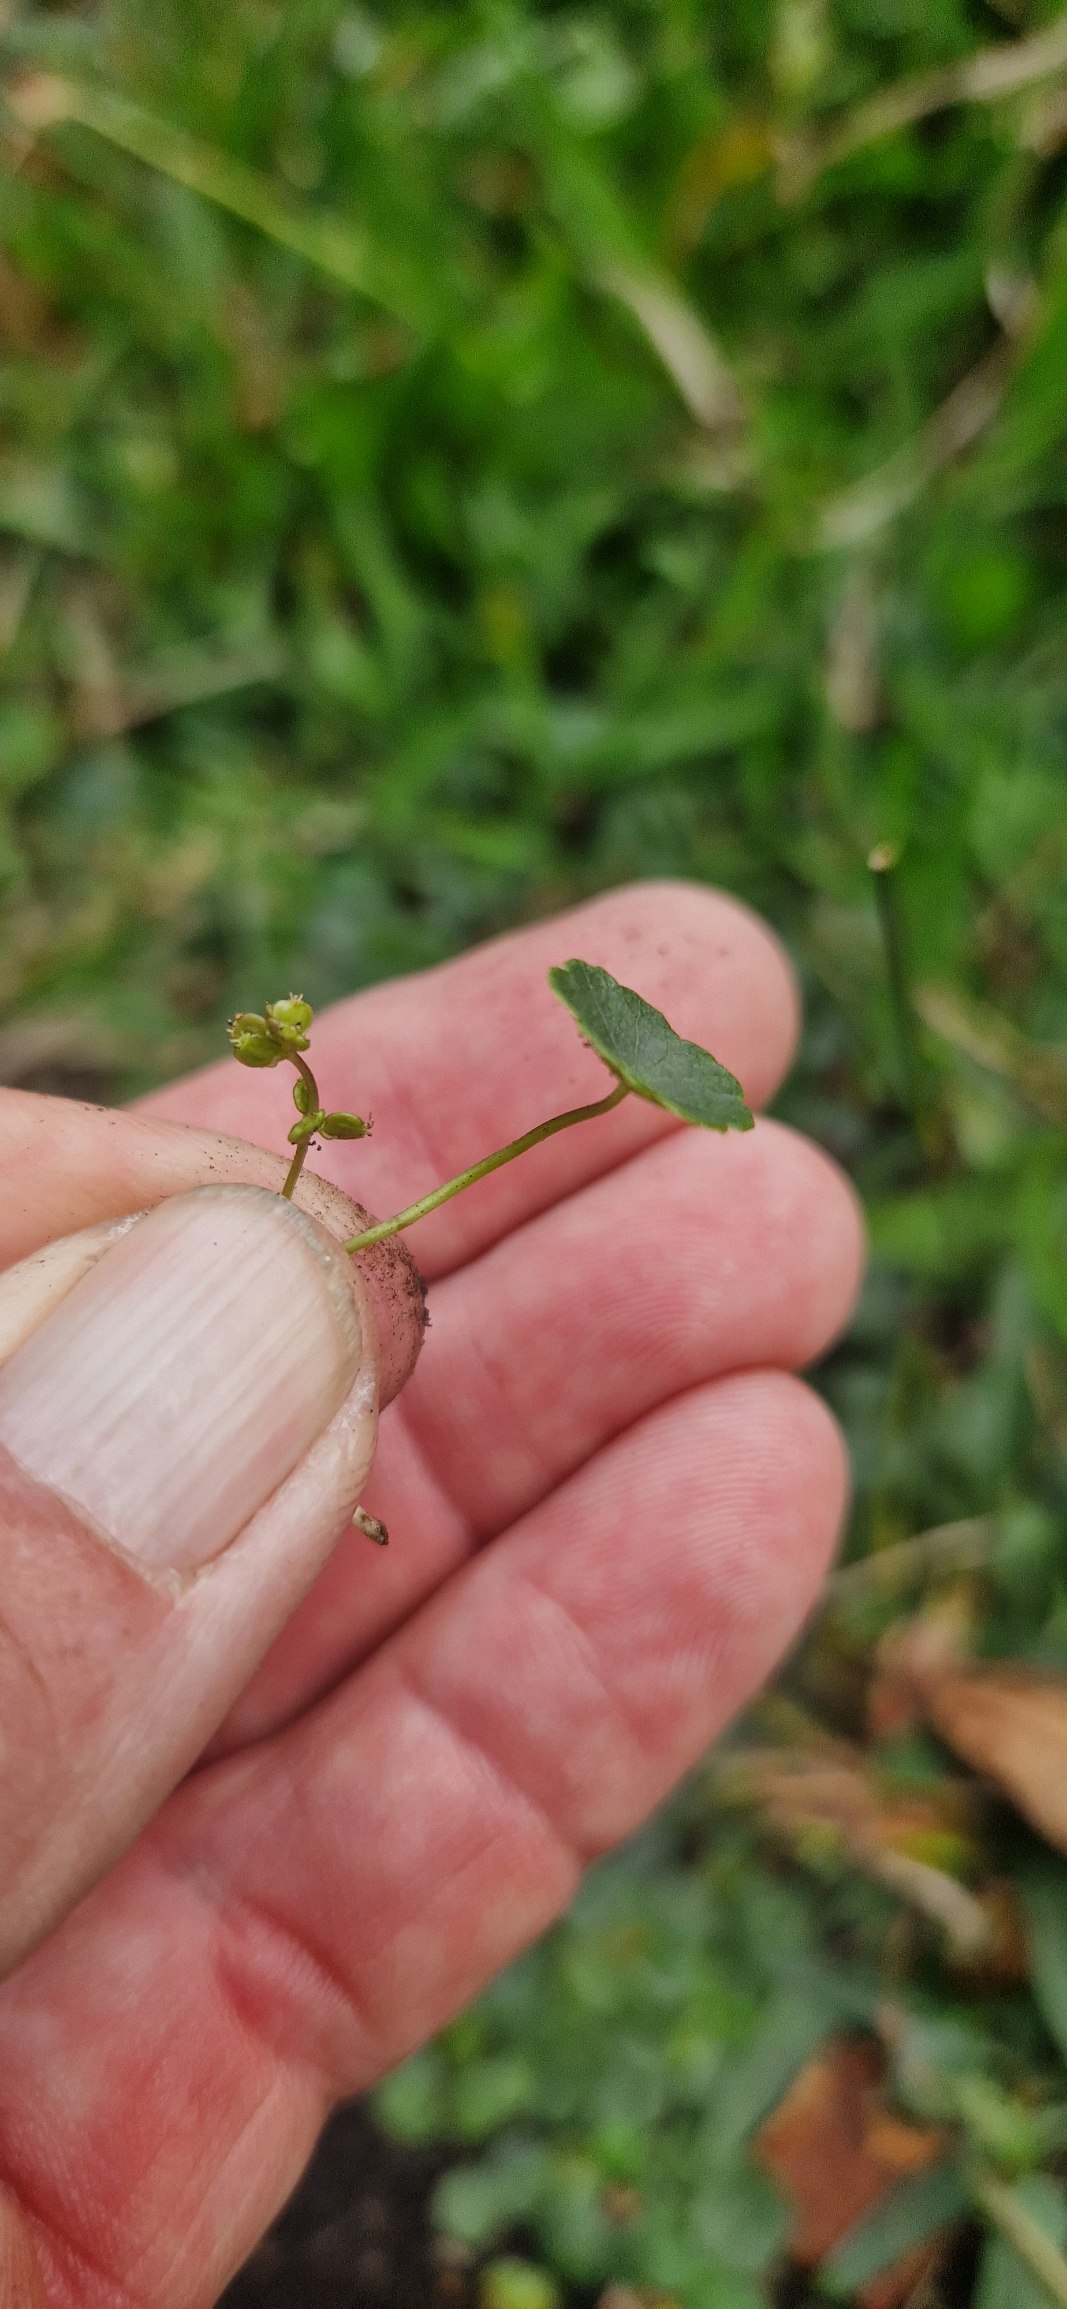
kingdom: Plantae
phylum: Tracheophyta
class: Magnoliopsida
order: Apiales
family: Araliaceae
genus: Hydrocotyle
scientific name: Hydrocotyle vulgaris
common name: Vandnavle
